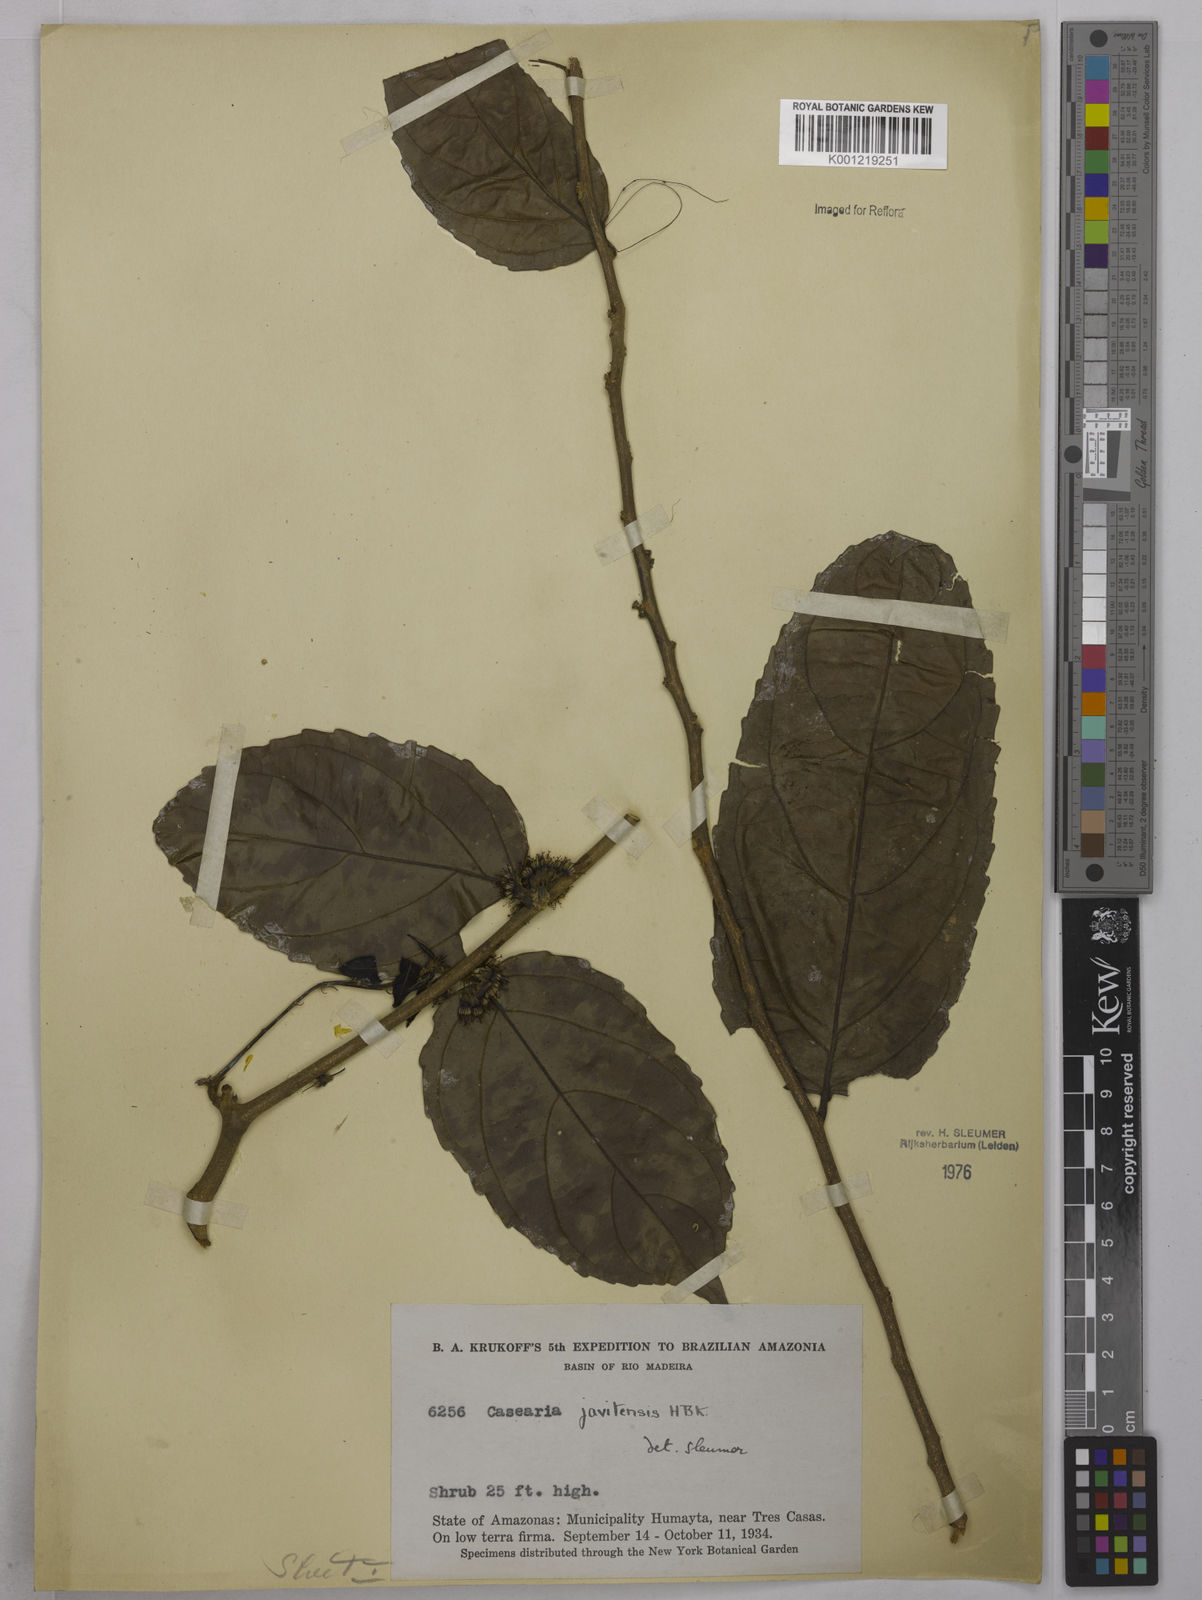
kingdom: Plantae
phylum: Tracheophyta
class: Magnoliopsida
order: Malpighiales
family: Salicaceae
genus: Piparea
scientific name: Piparea multiflora
